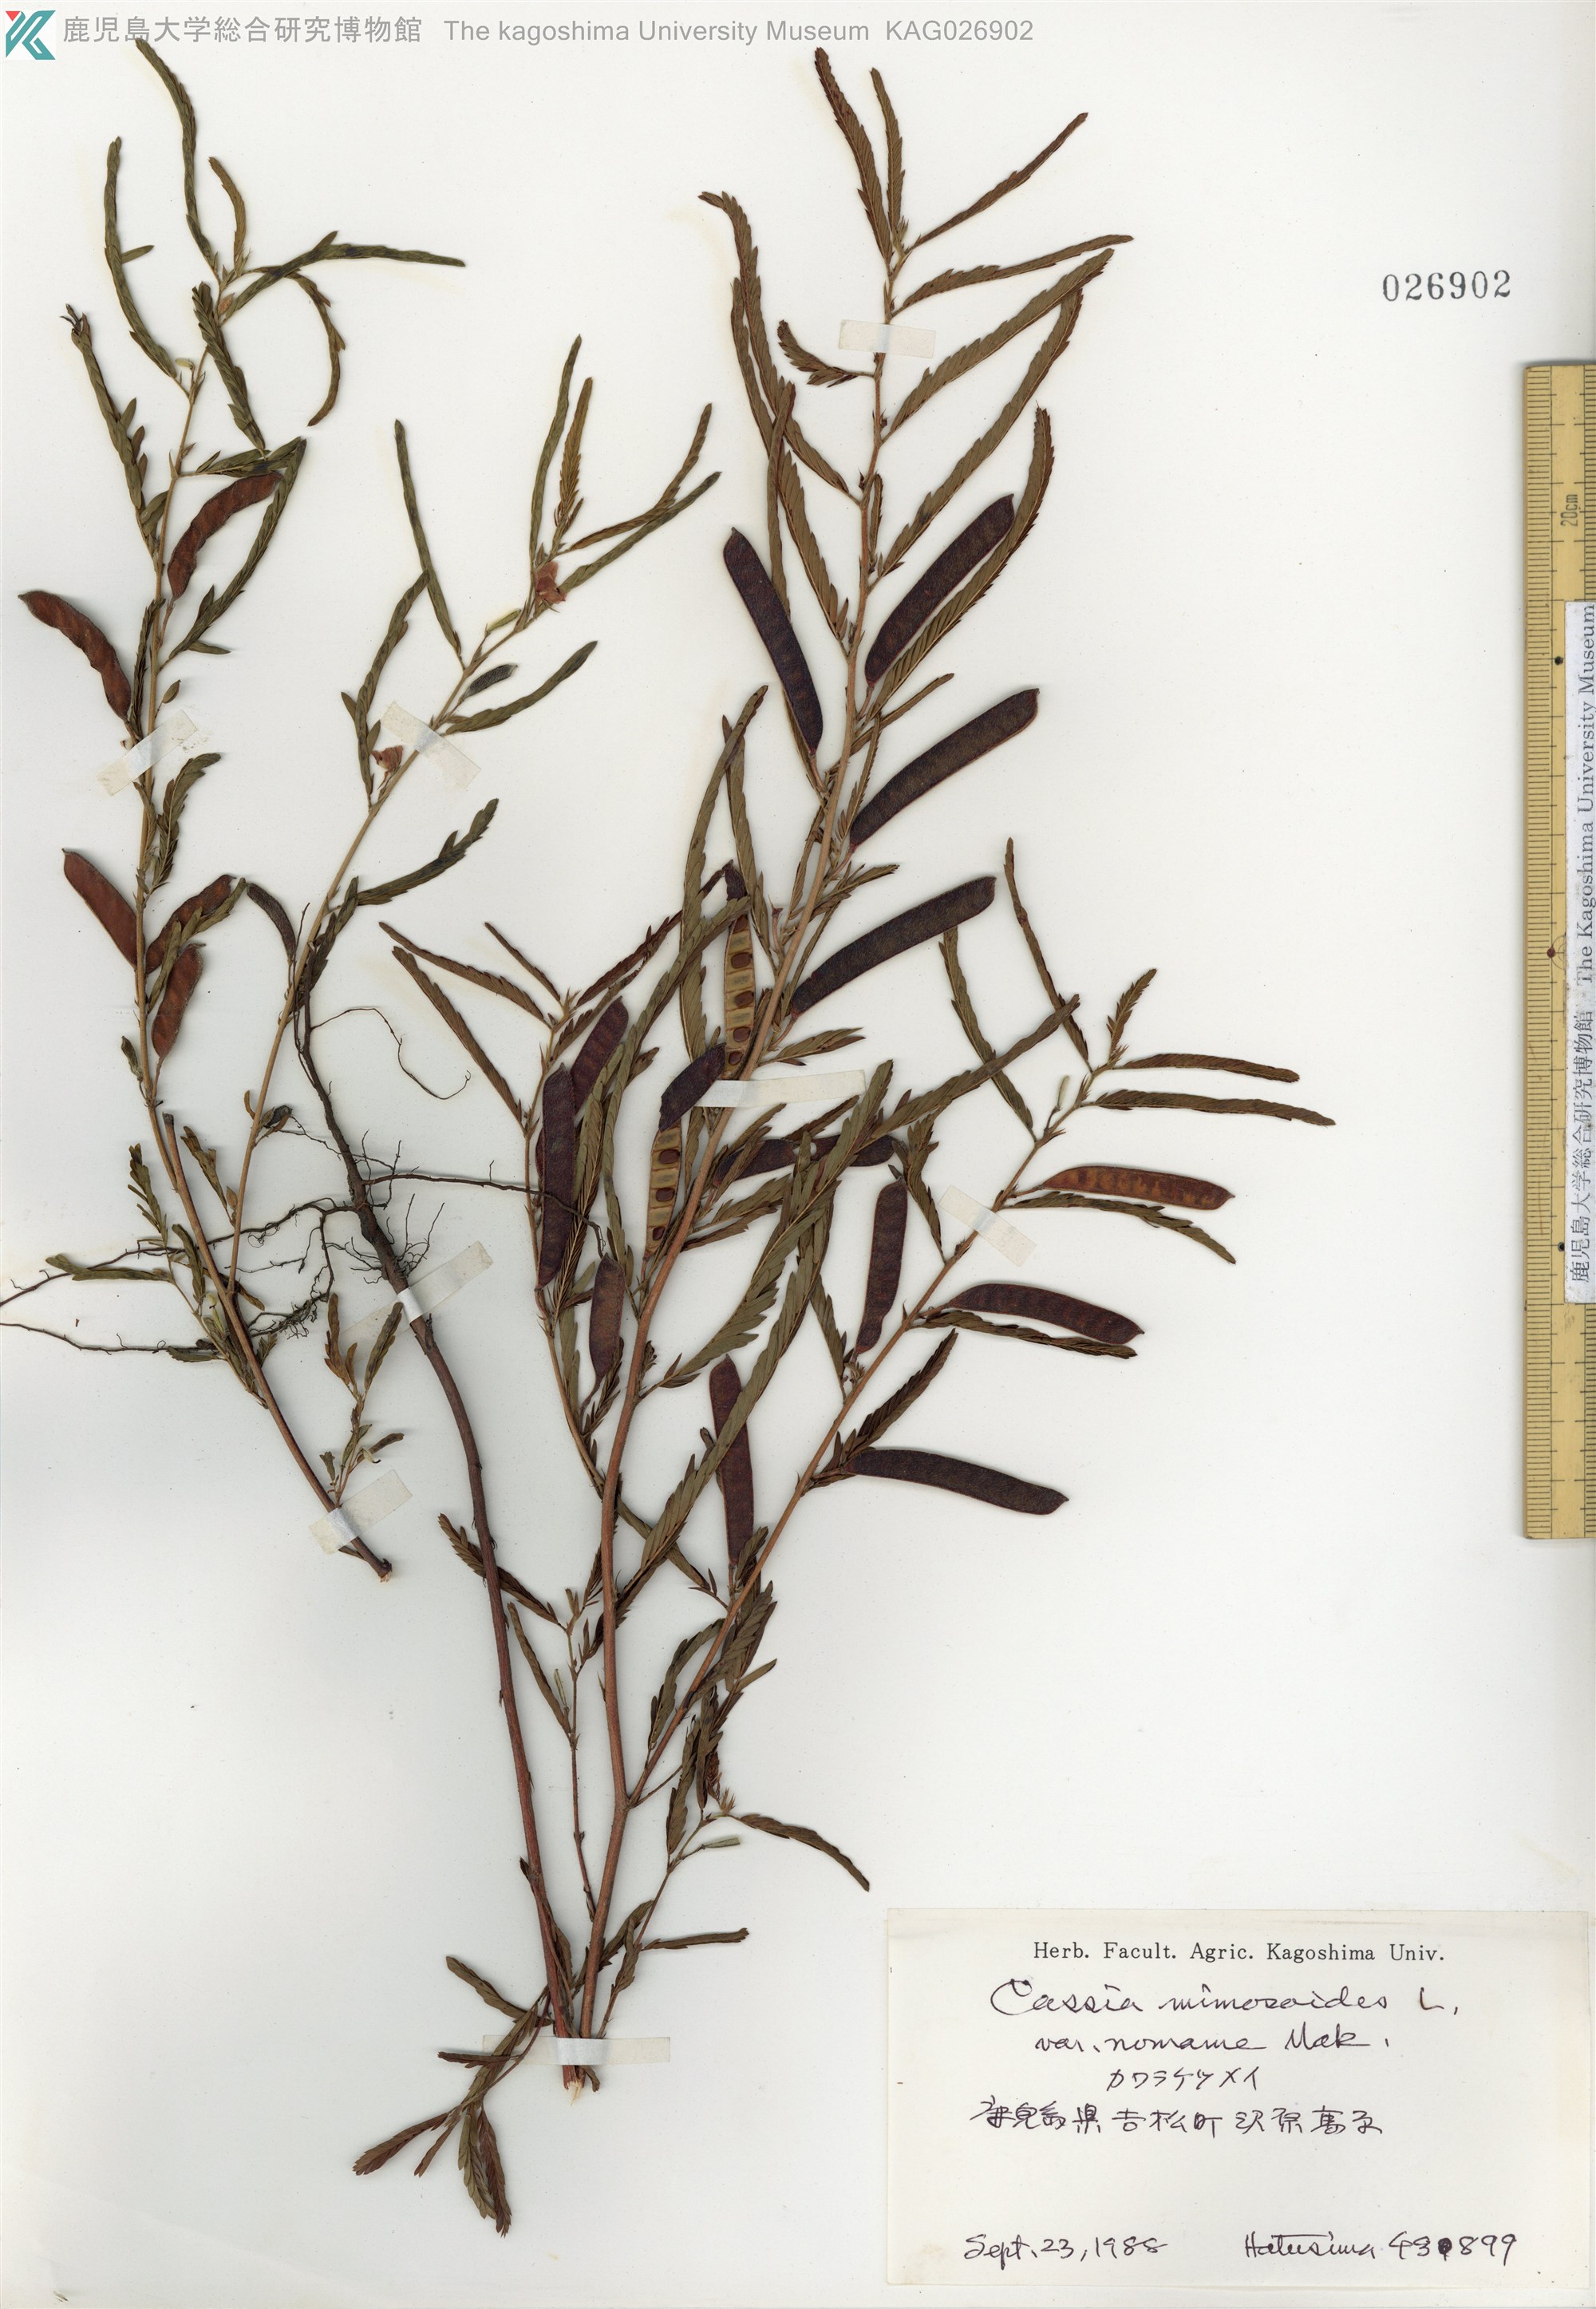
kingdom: Plantae
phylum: Tracheophyta
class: Magnoliopsida
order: Fabales
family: Fabaceae
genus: Chamaecrista
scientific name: Chamaecrista nomame
